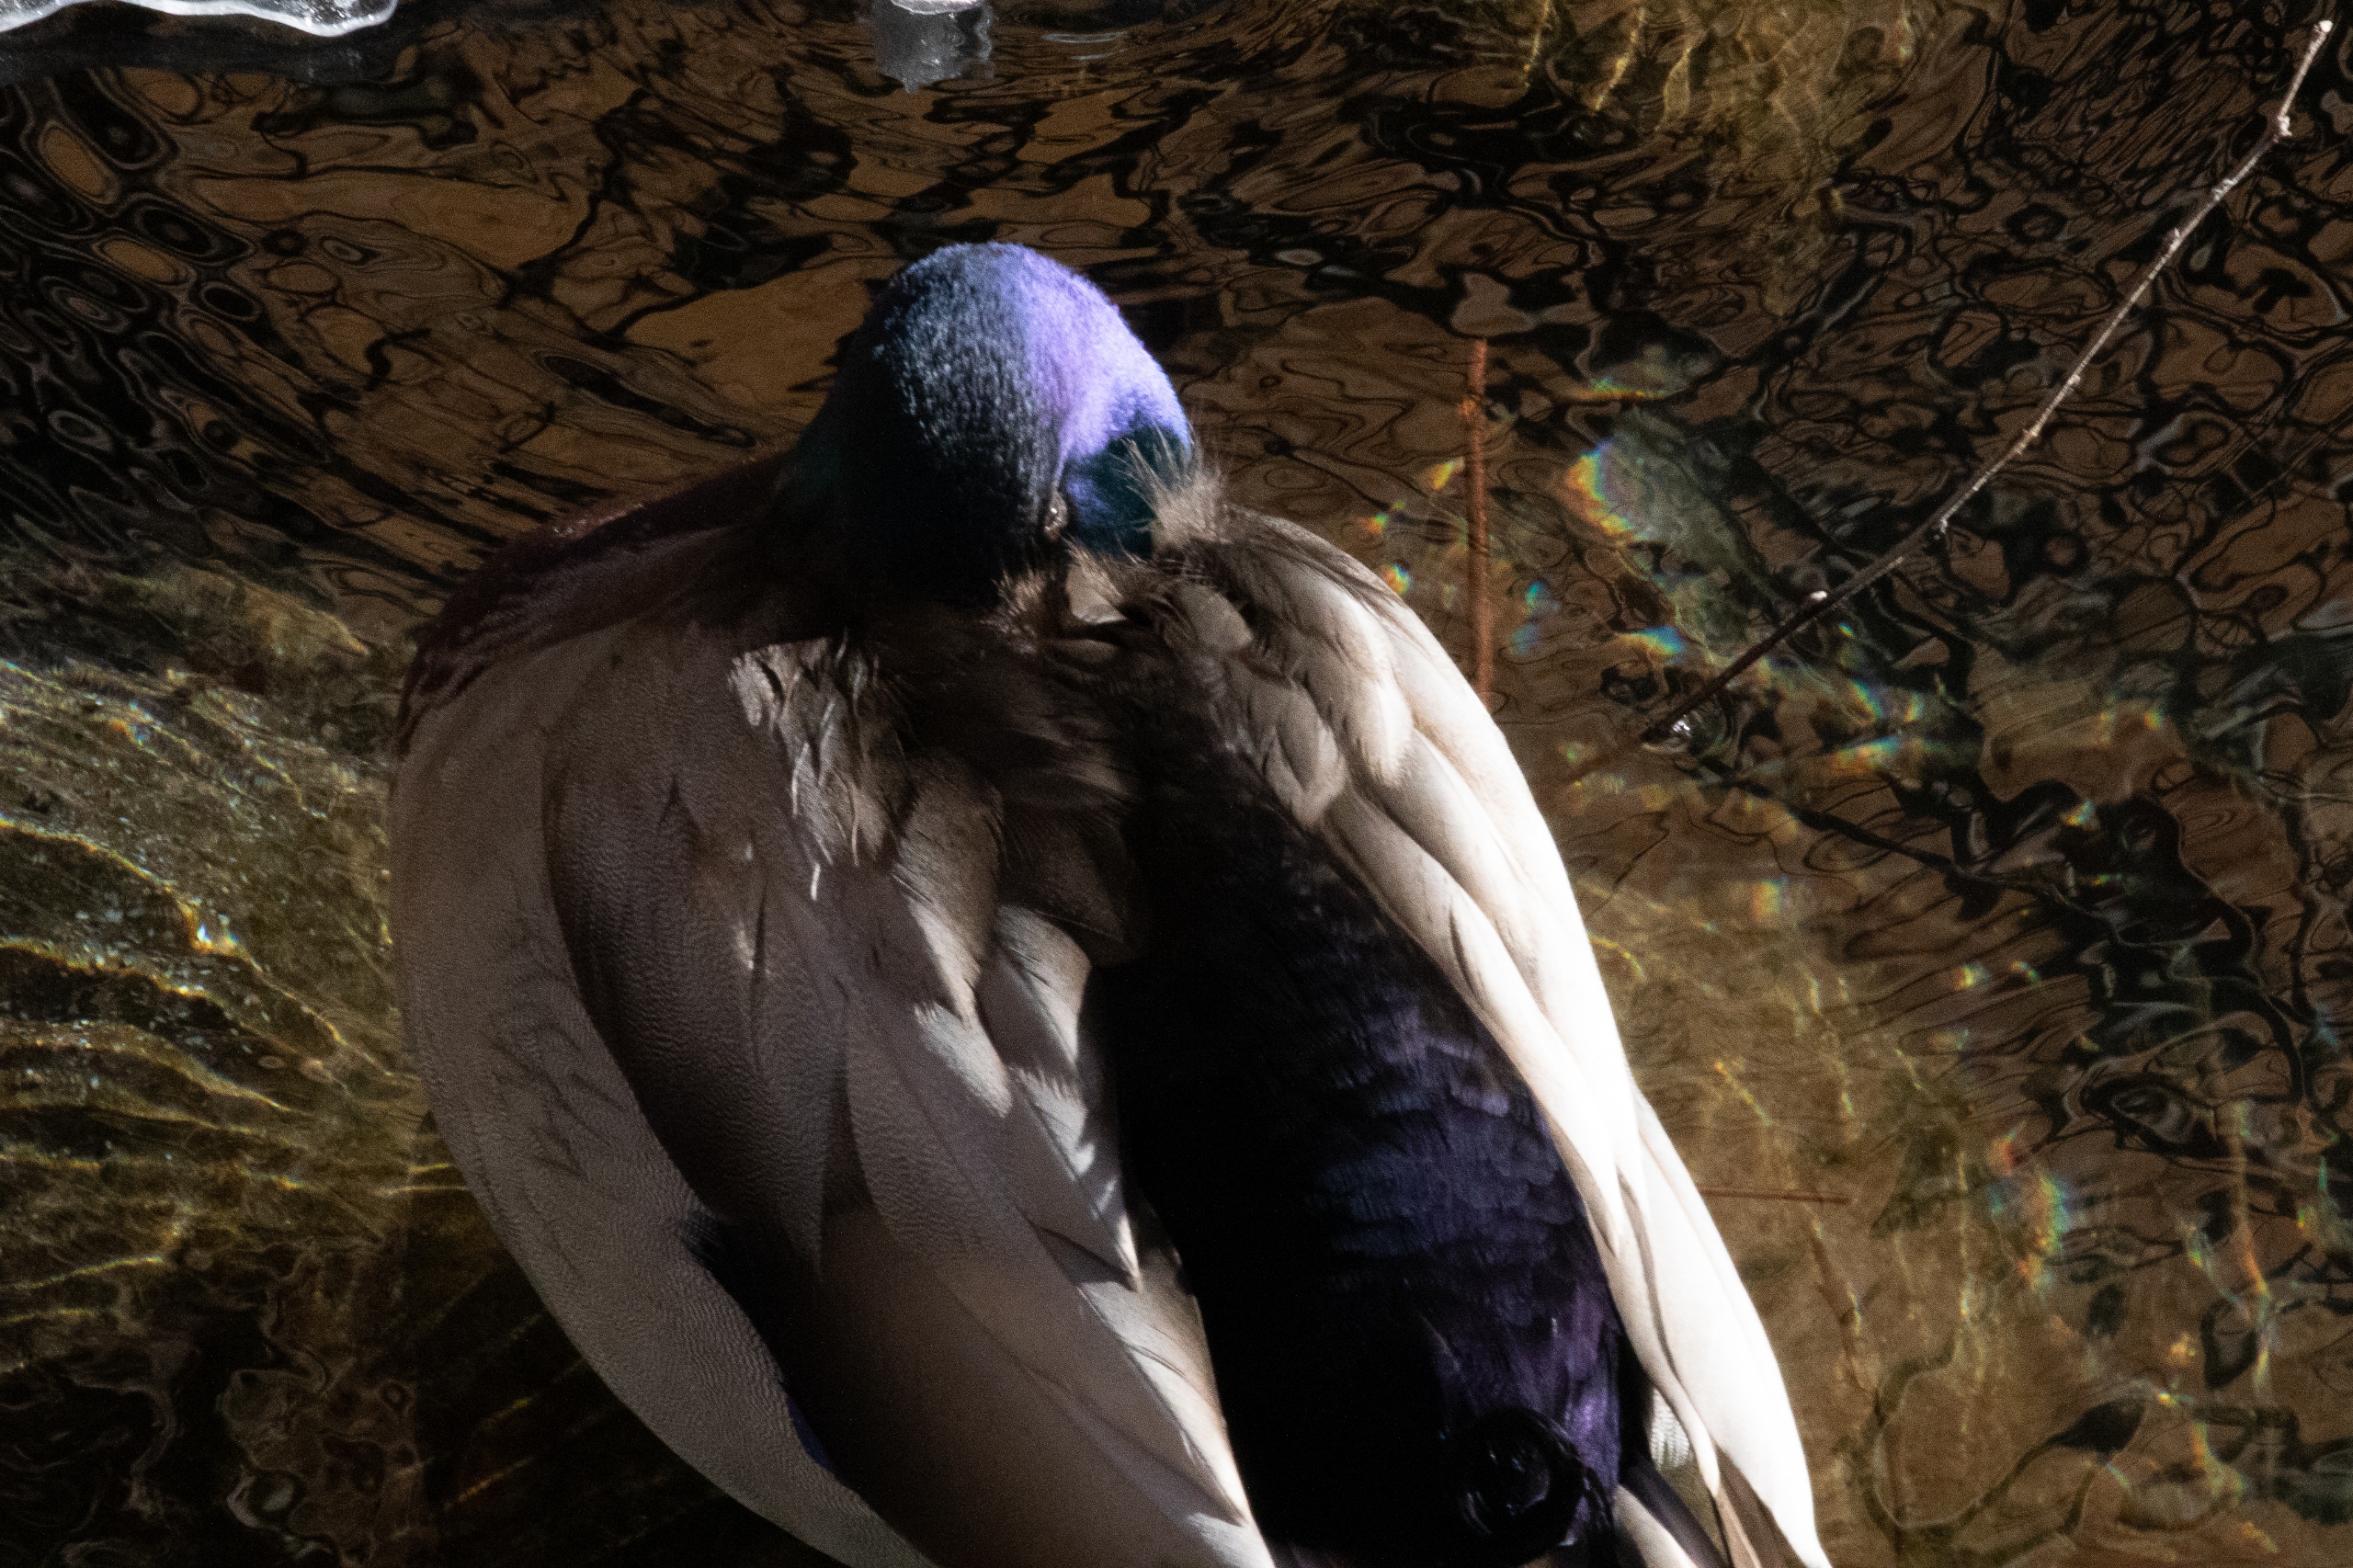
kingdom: Animalia
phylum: Chordata
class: Aves
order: Anseriformes
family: Anatidae
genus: Anas
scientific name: Anas platyrhynchos
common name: Gråand
